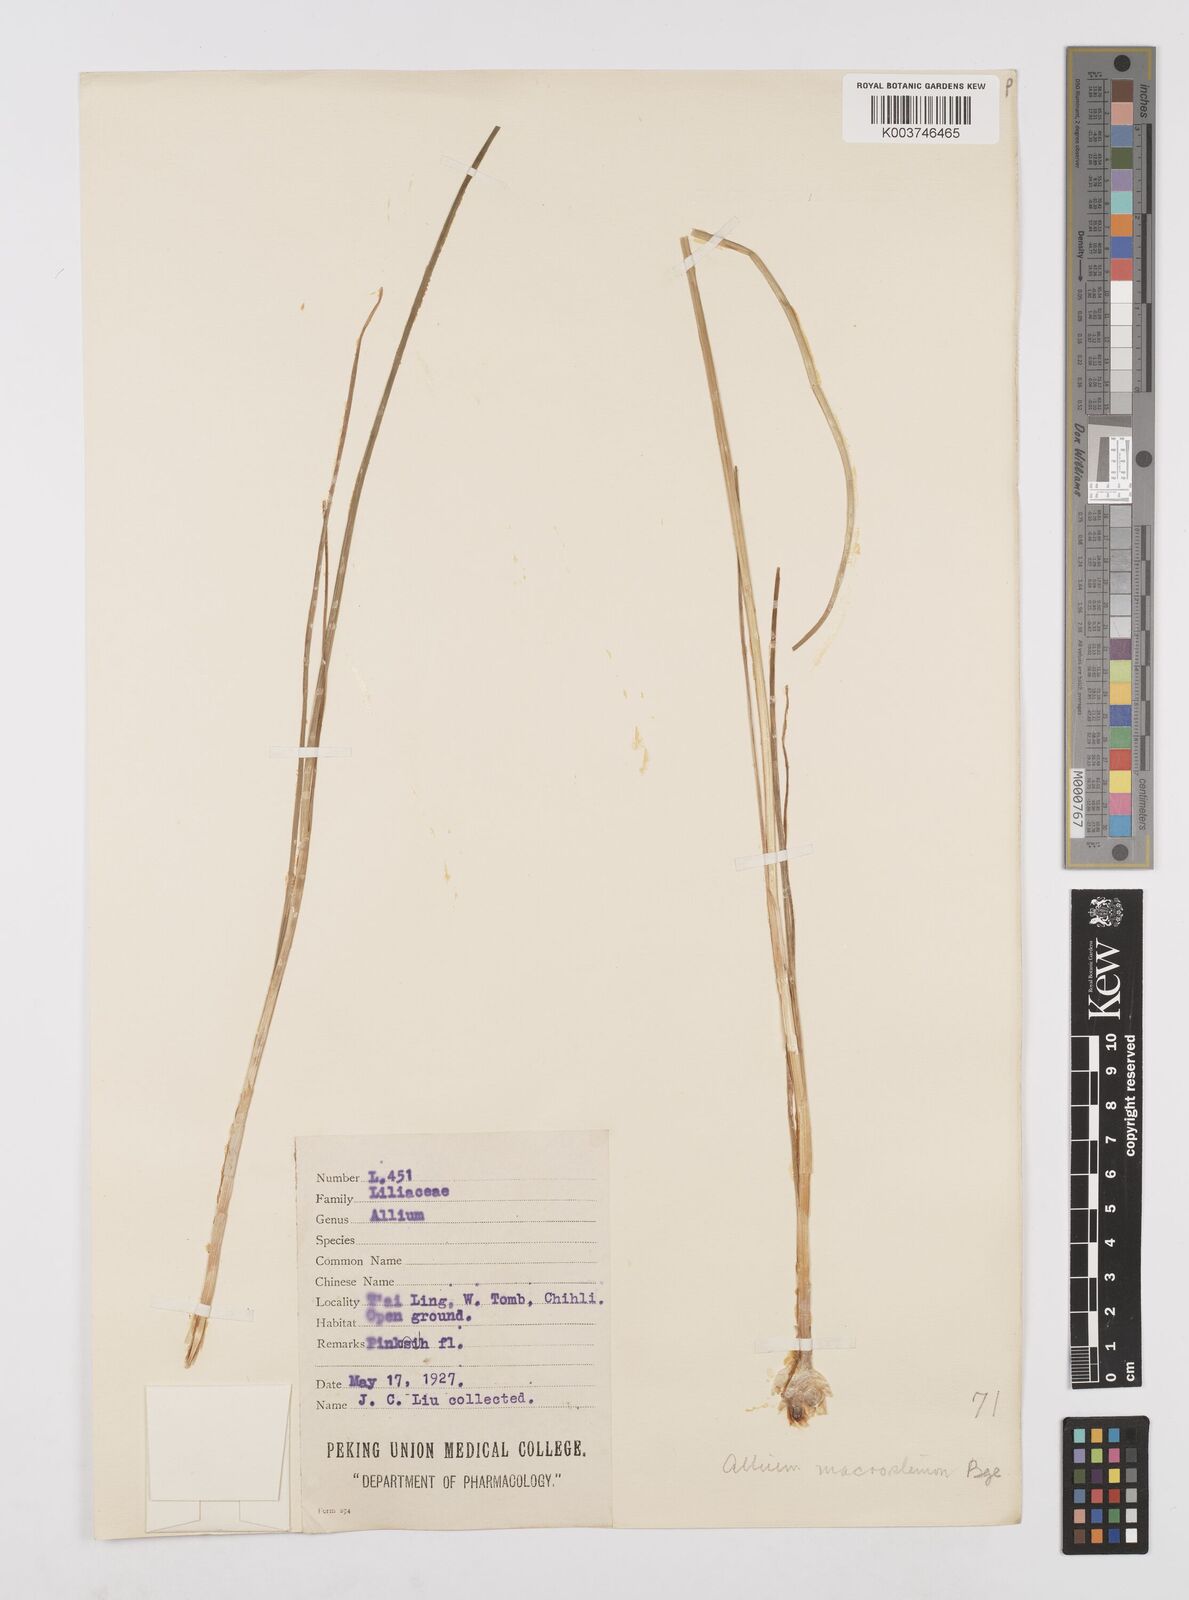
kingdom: Plantae
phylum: Tracheophyta
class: Liliopsida
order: Asparagales
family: Amaryllidaceae
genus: Allium
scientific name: Allium macrostemon
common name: Chinese garlic
